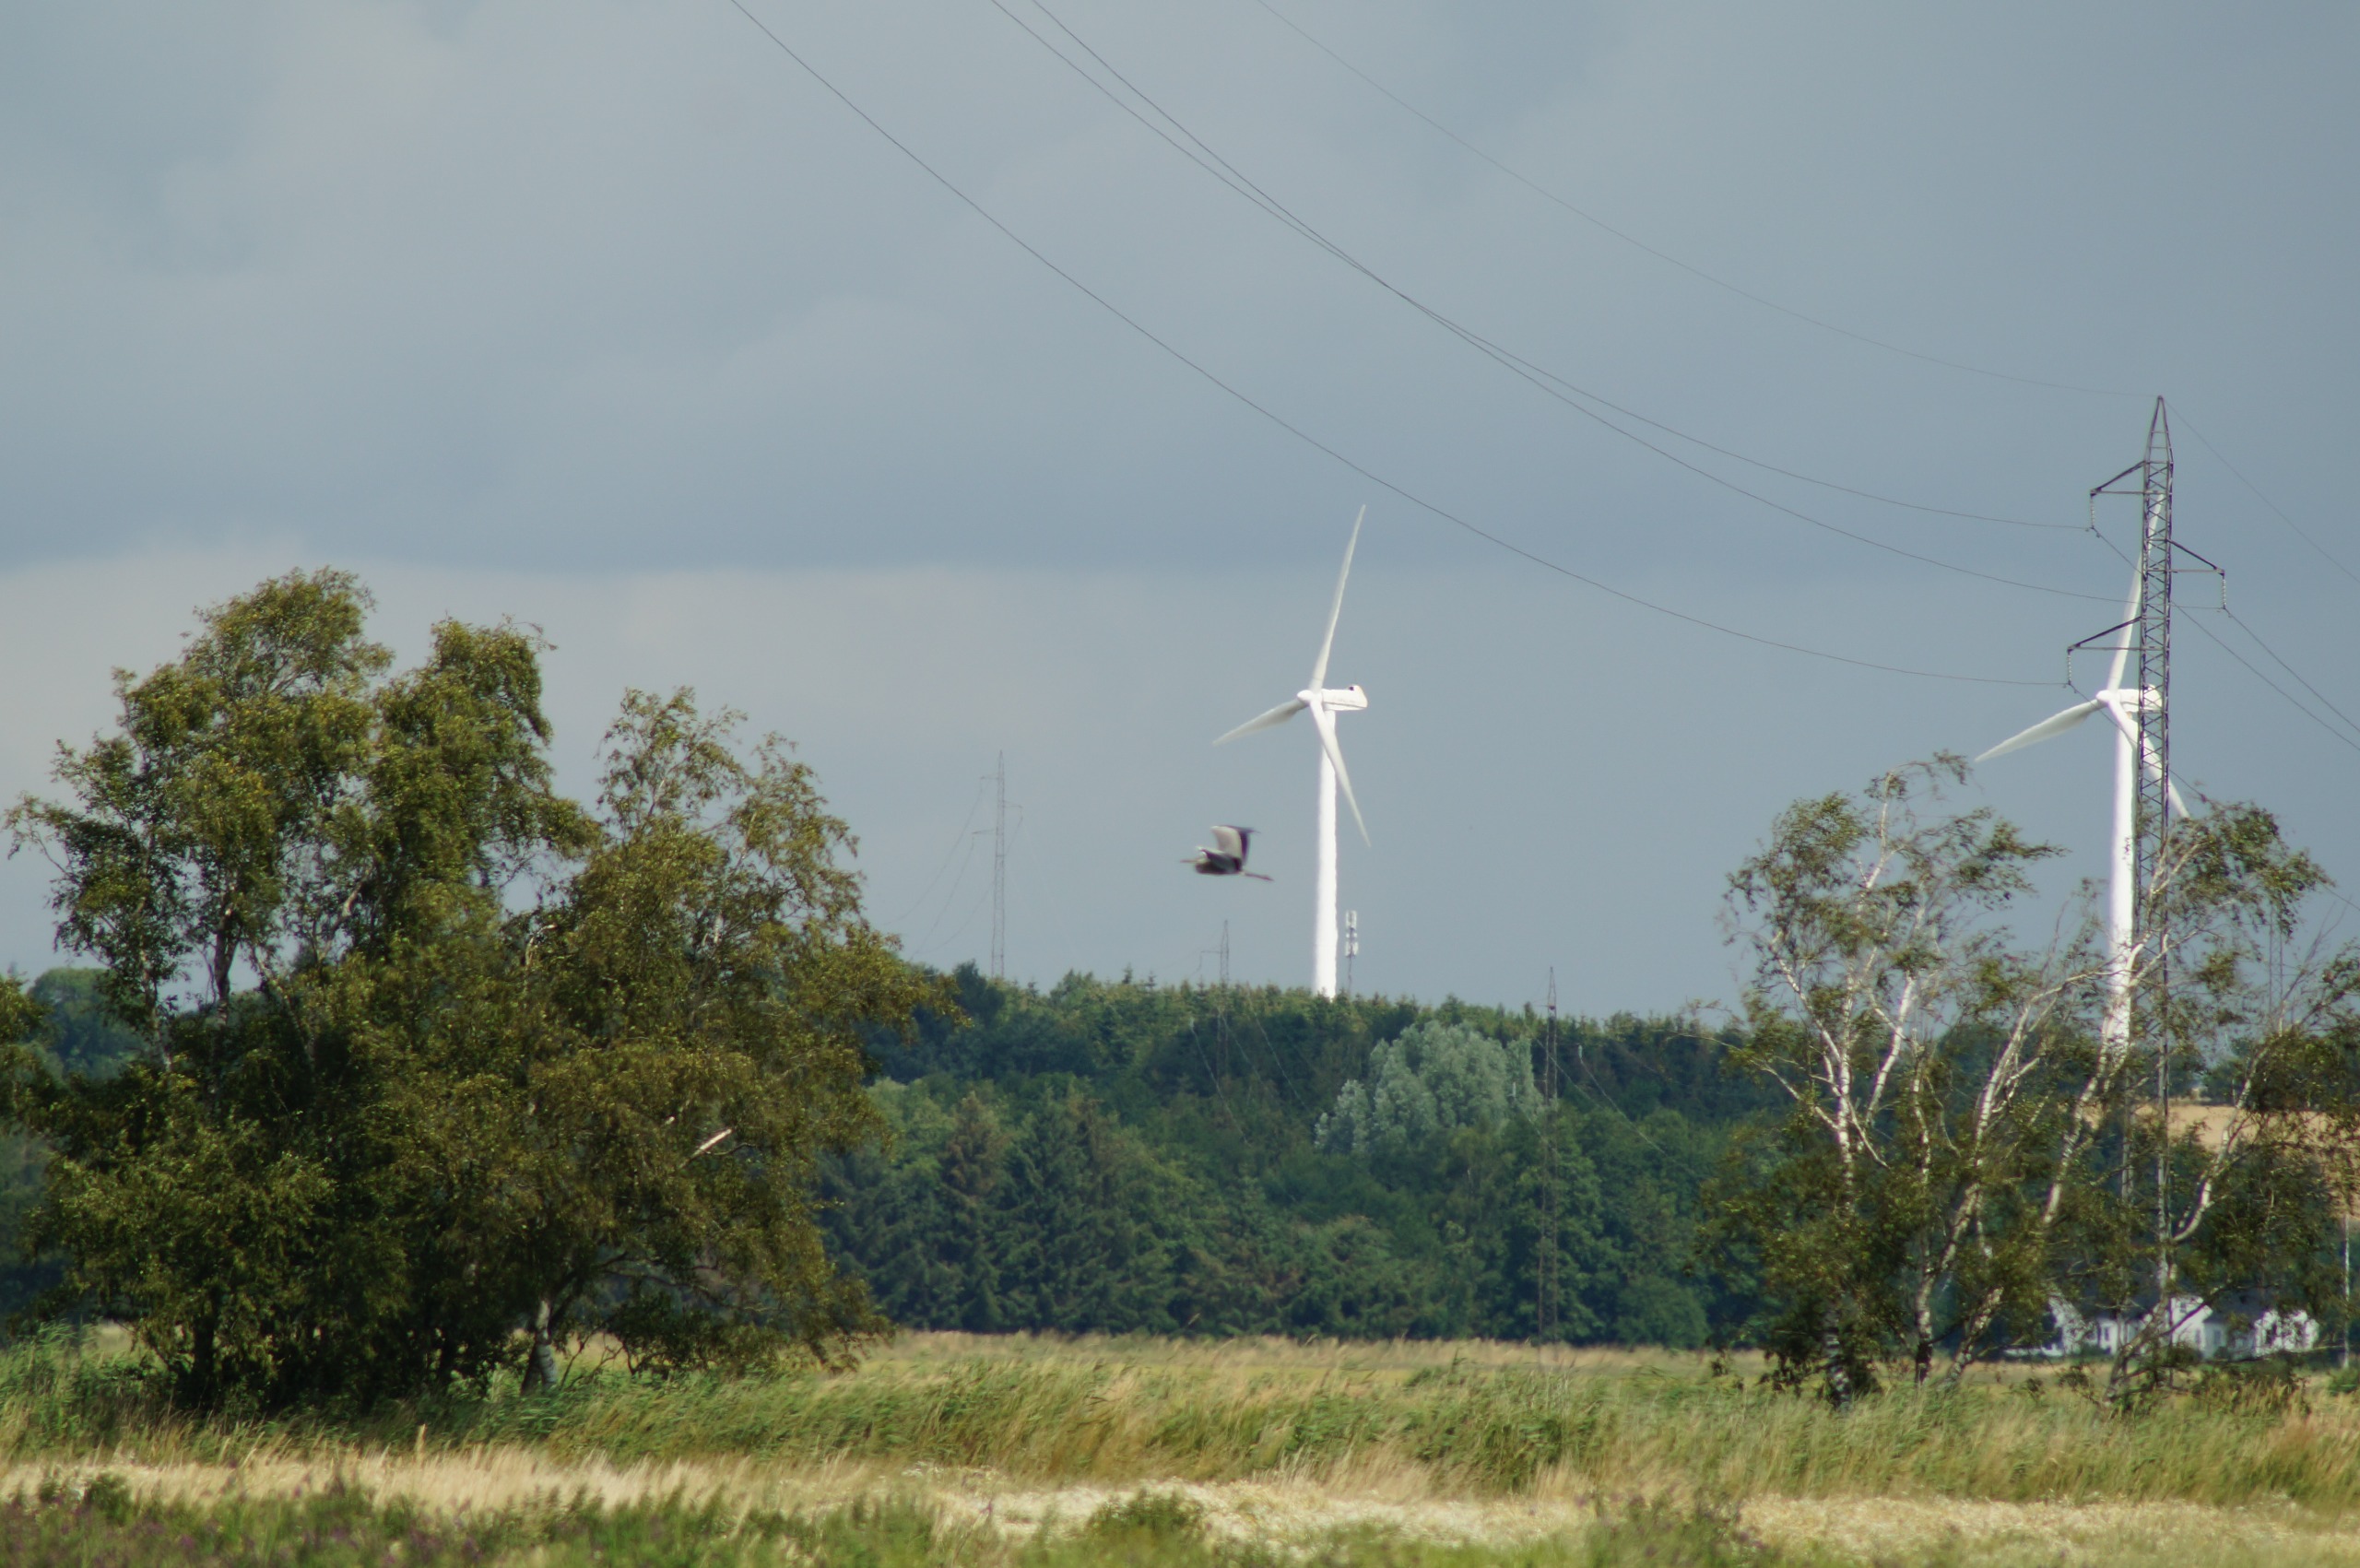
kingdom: Animalia
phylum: Chordata
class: Aves
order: Pelecaniformes
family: Ardeidae
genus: Ardea
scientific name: Ardea cinerea
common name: Fiskehejre
